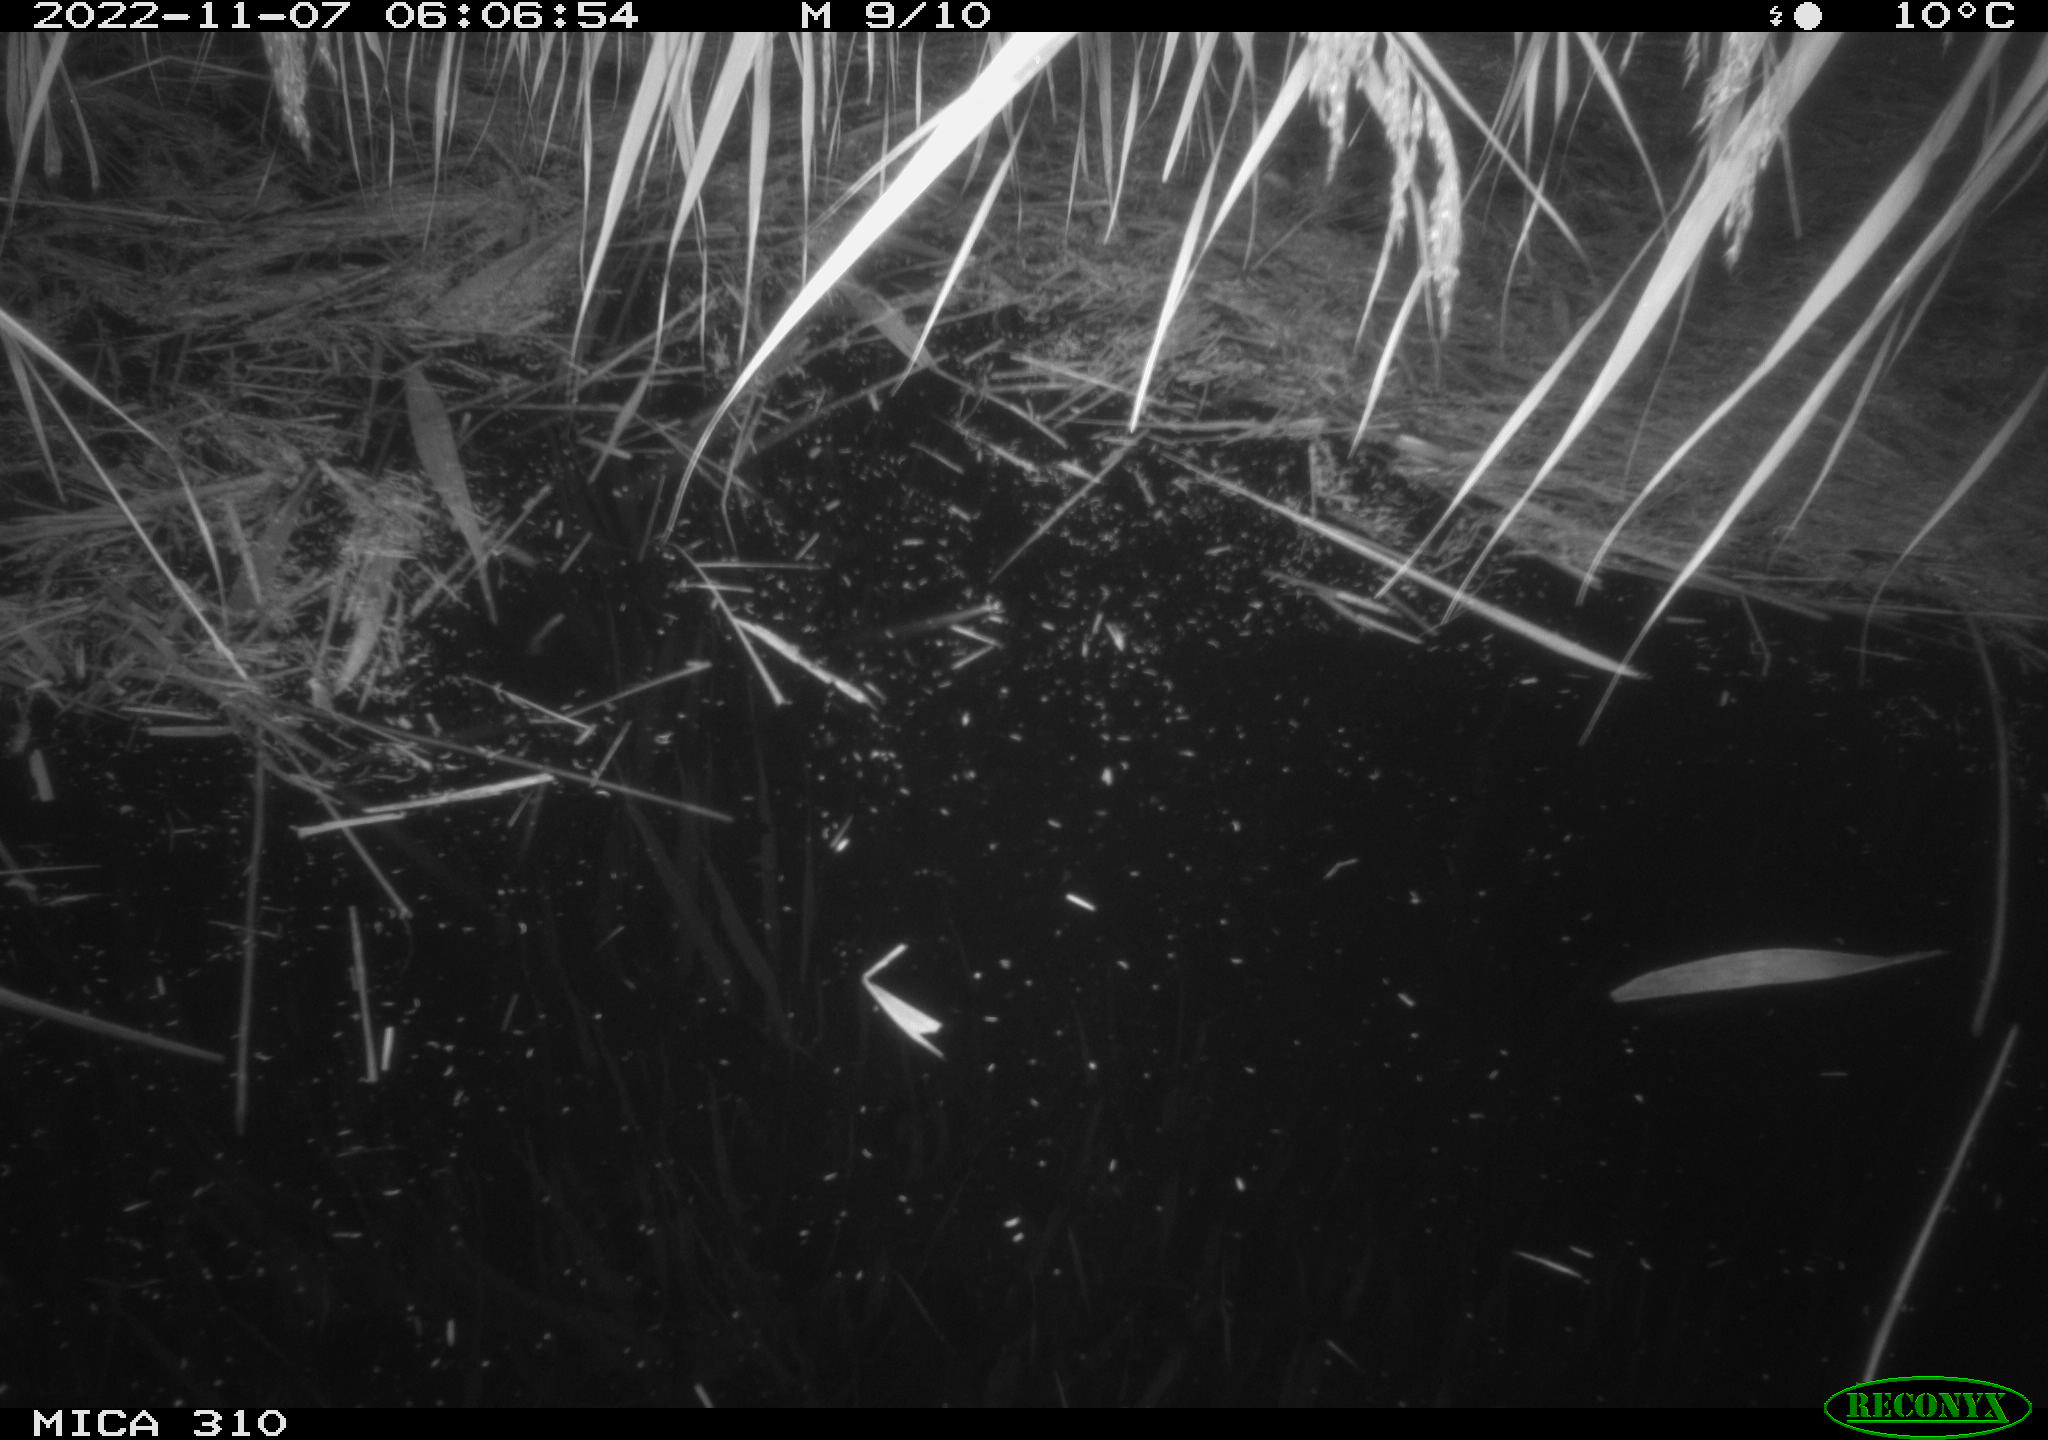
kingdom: Animalia
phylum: Chordata
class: Mammalia
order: Rodentia
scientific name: Rodentia
